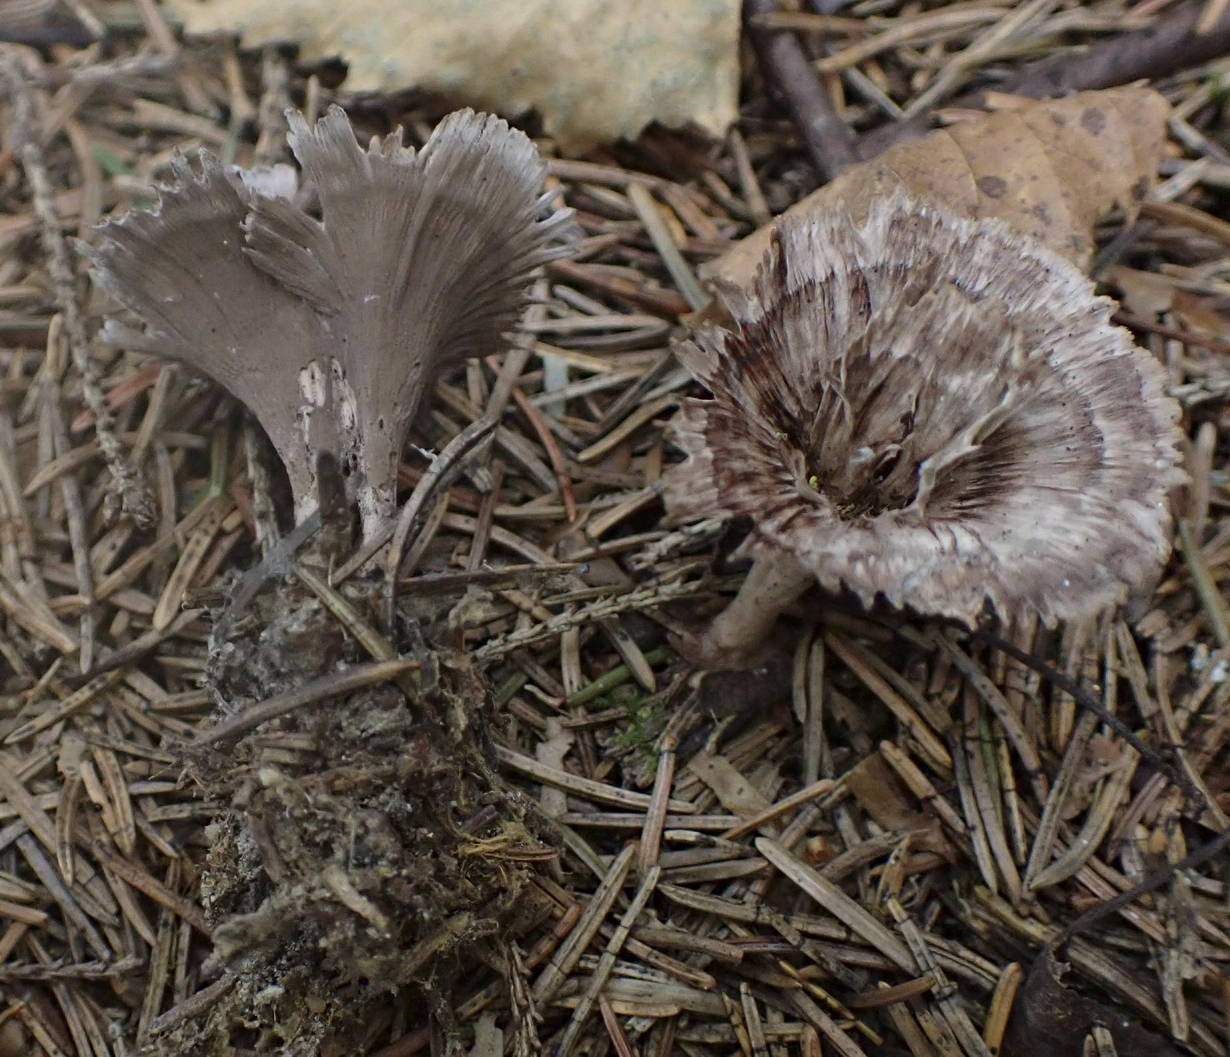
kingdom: Fungi
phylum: Basidiomycota
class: Agaricomycetes
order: Thelephorales
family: Thelephoraceae
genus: Thelephora
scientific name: Thelephora caryophyllea
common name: tragt-frynsesvamp
